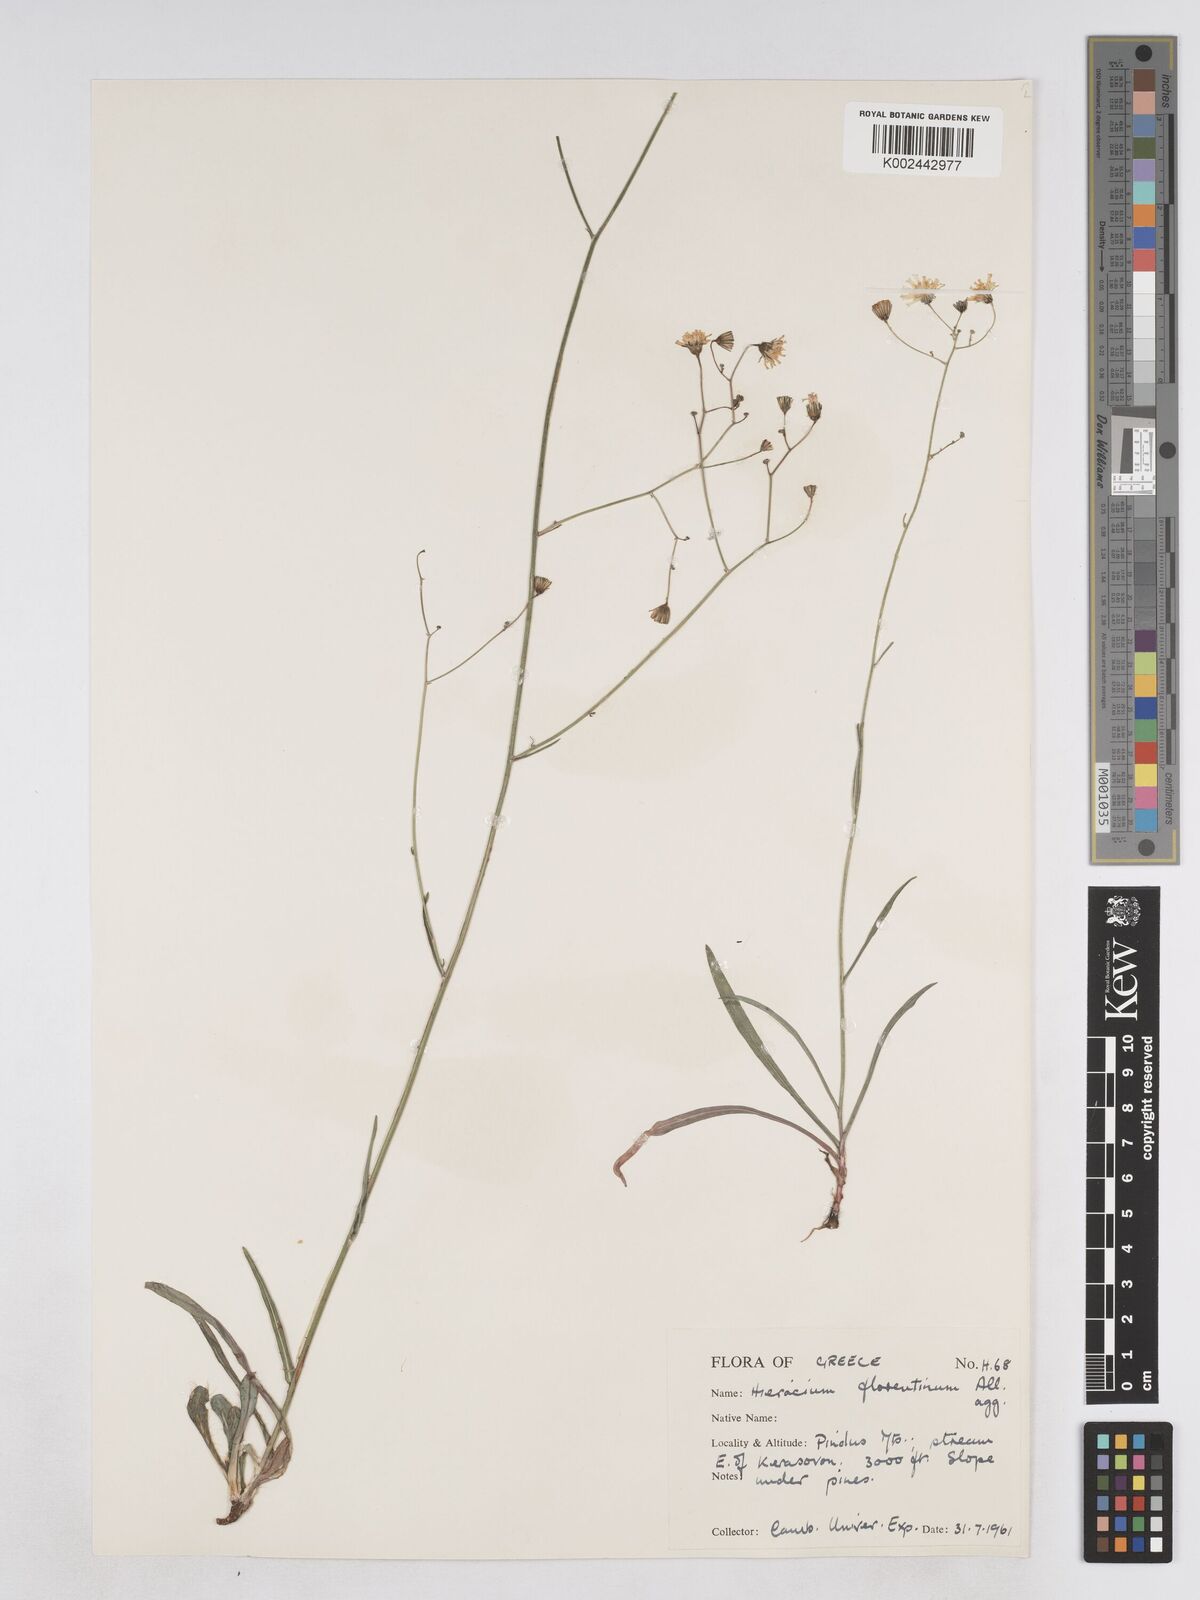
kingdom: Plantae
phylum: Tracheophyta
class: Magnoliopsida
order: Asterales
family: Asteraceae
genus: Pilosella
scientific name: Pilosella piloselloides
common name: Glaucous king-devil
